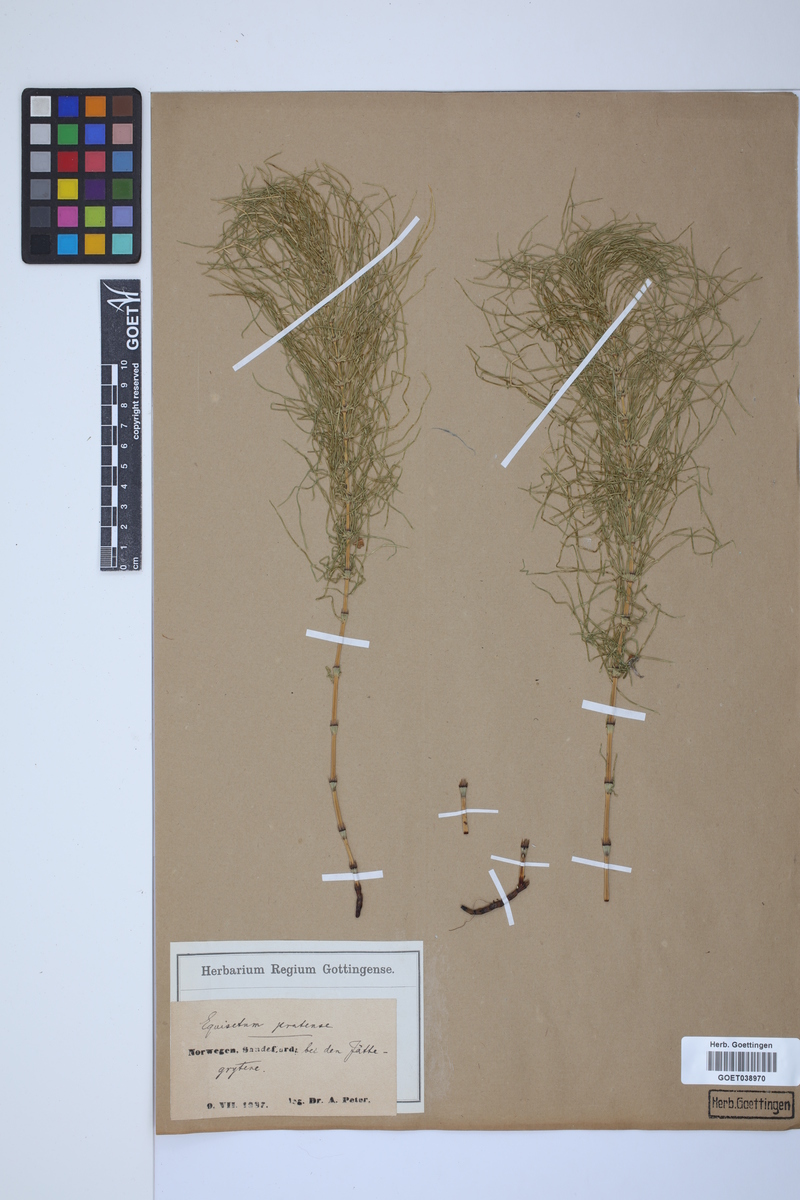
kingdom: Plantae
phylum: Tracheophyta
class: Polypodiopsida
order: Equisetales
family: Equisetaceae
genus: Equisetum
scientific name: Equisetum pratense
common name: Meadow horsetail
